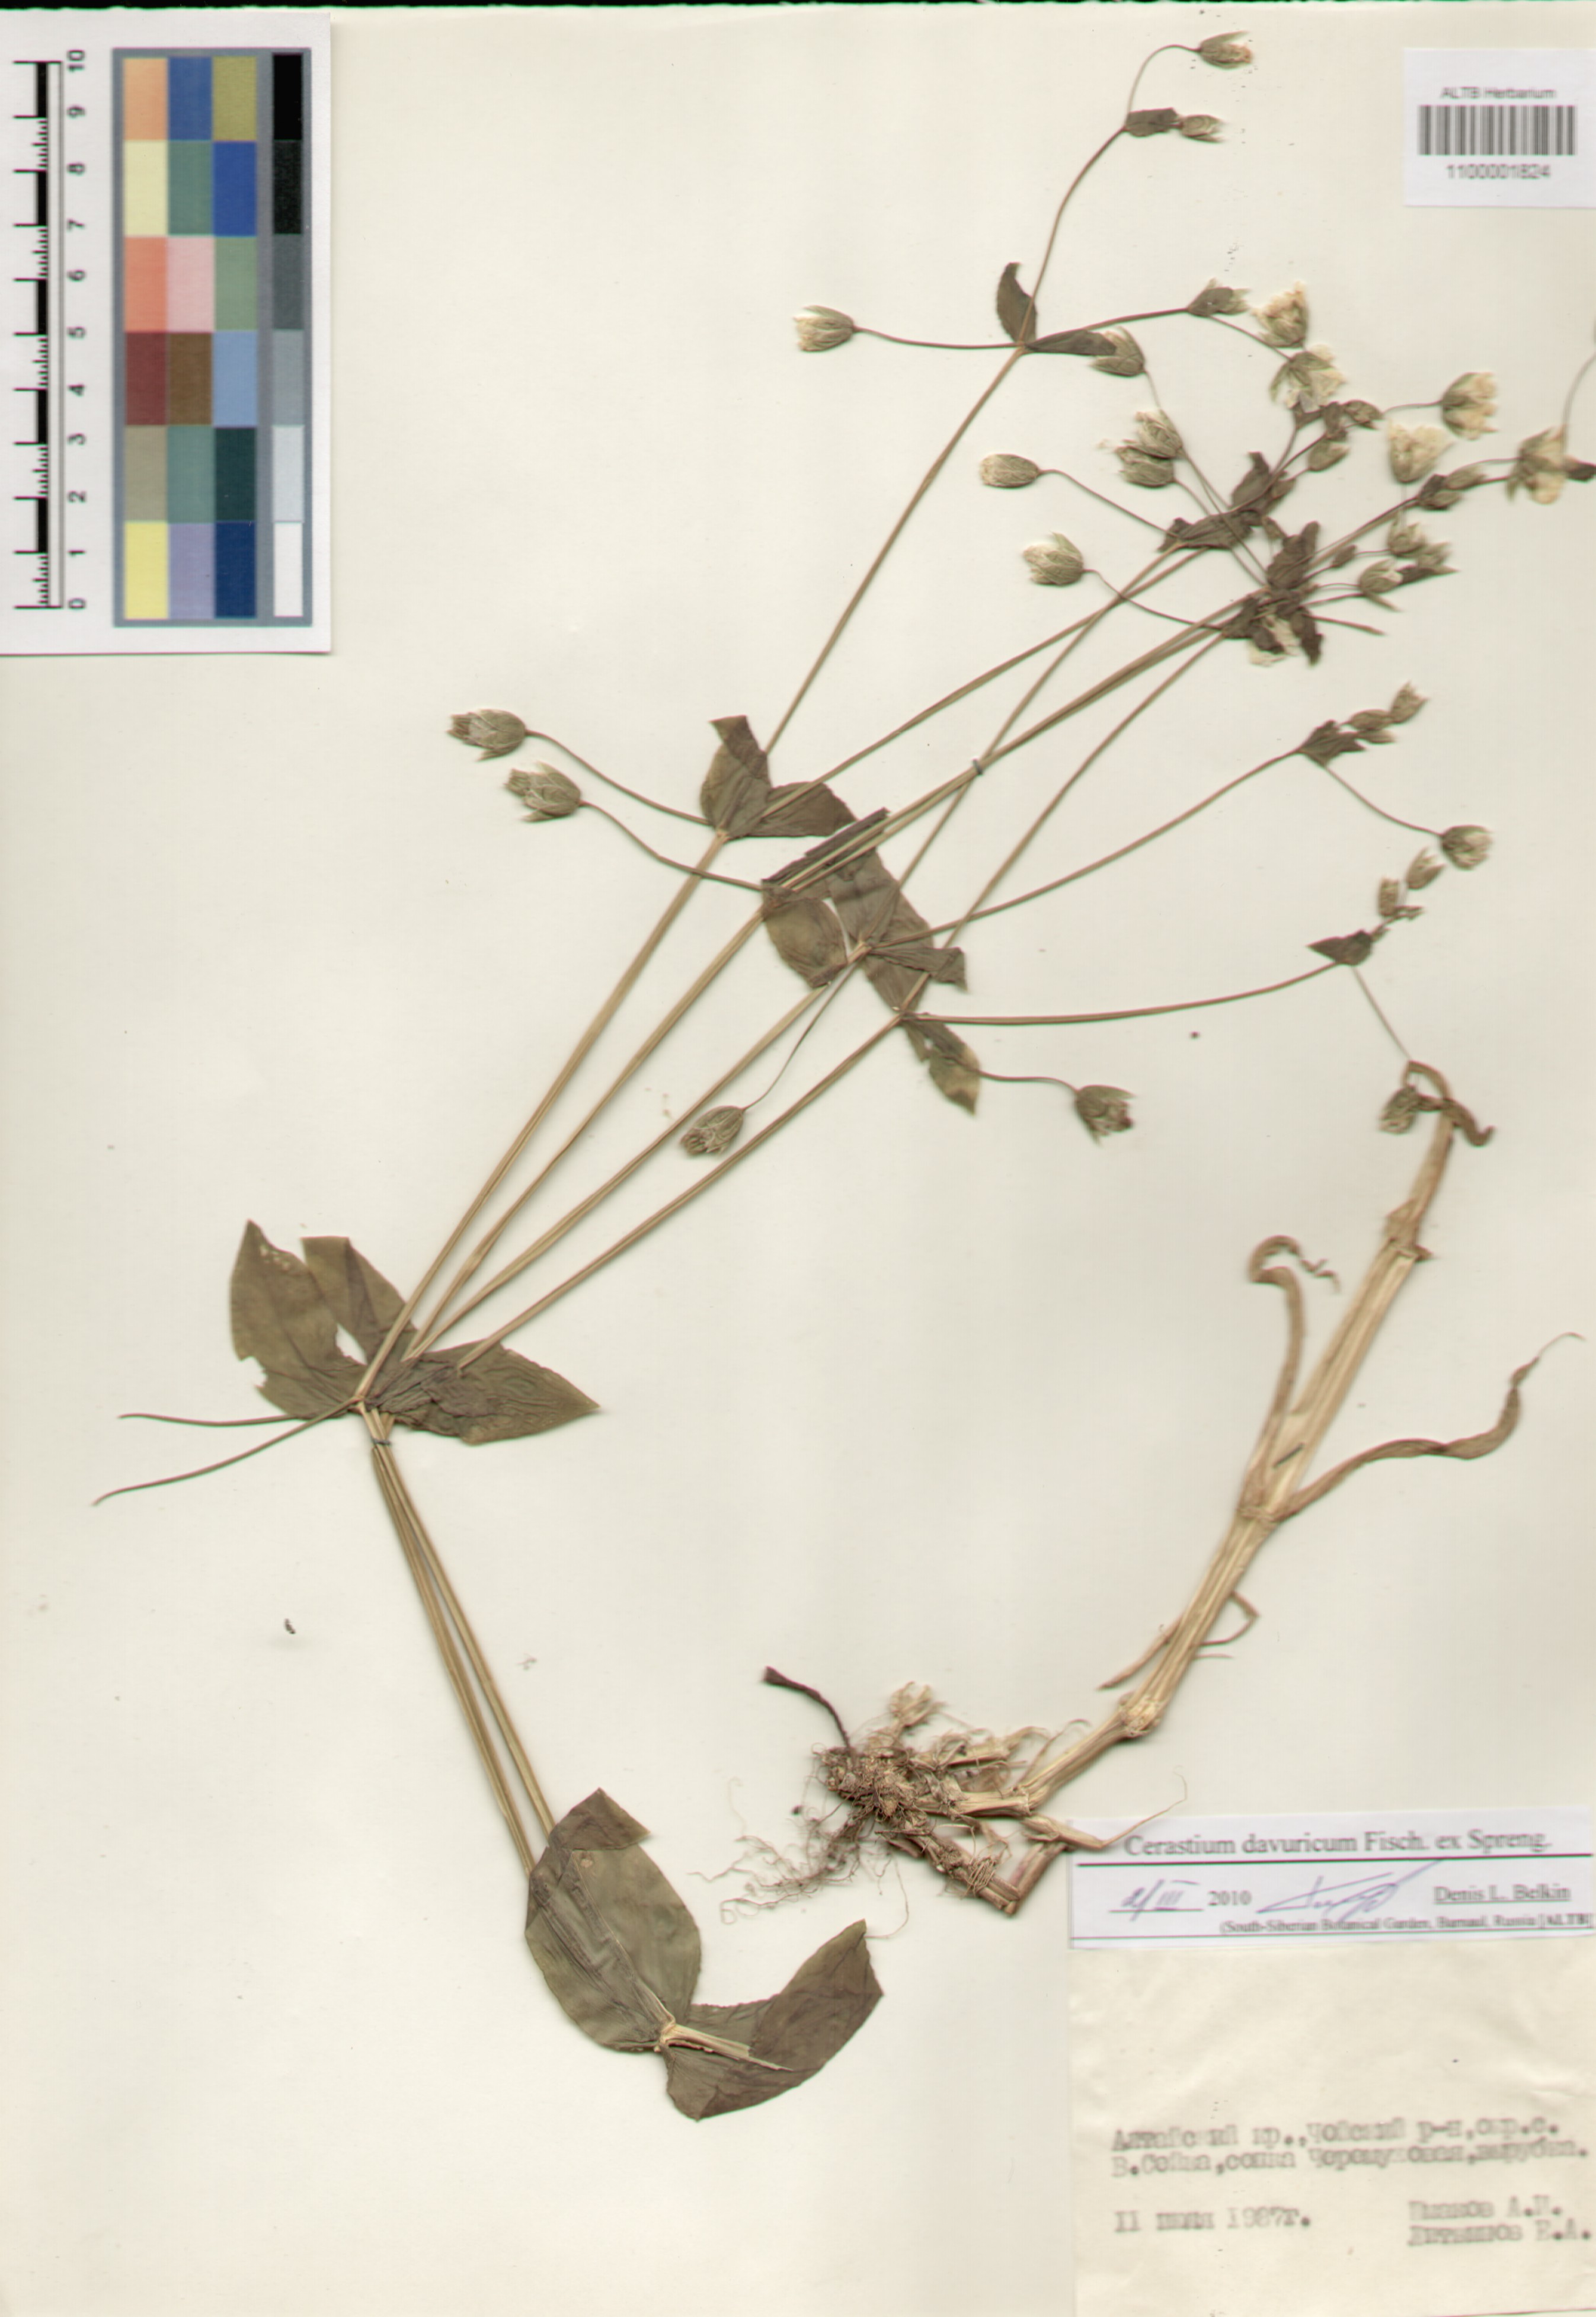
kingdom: Plantae
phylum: Tracheophyta
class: Magnoliopsida
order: Caryophyllales
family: Caryophyllaceae
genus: Dichodon
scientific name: Dichodon davuricum
